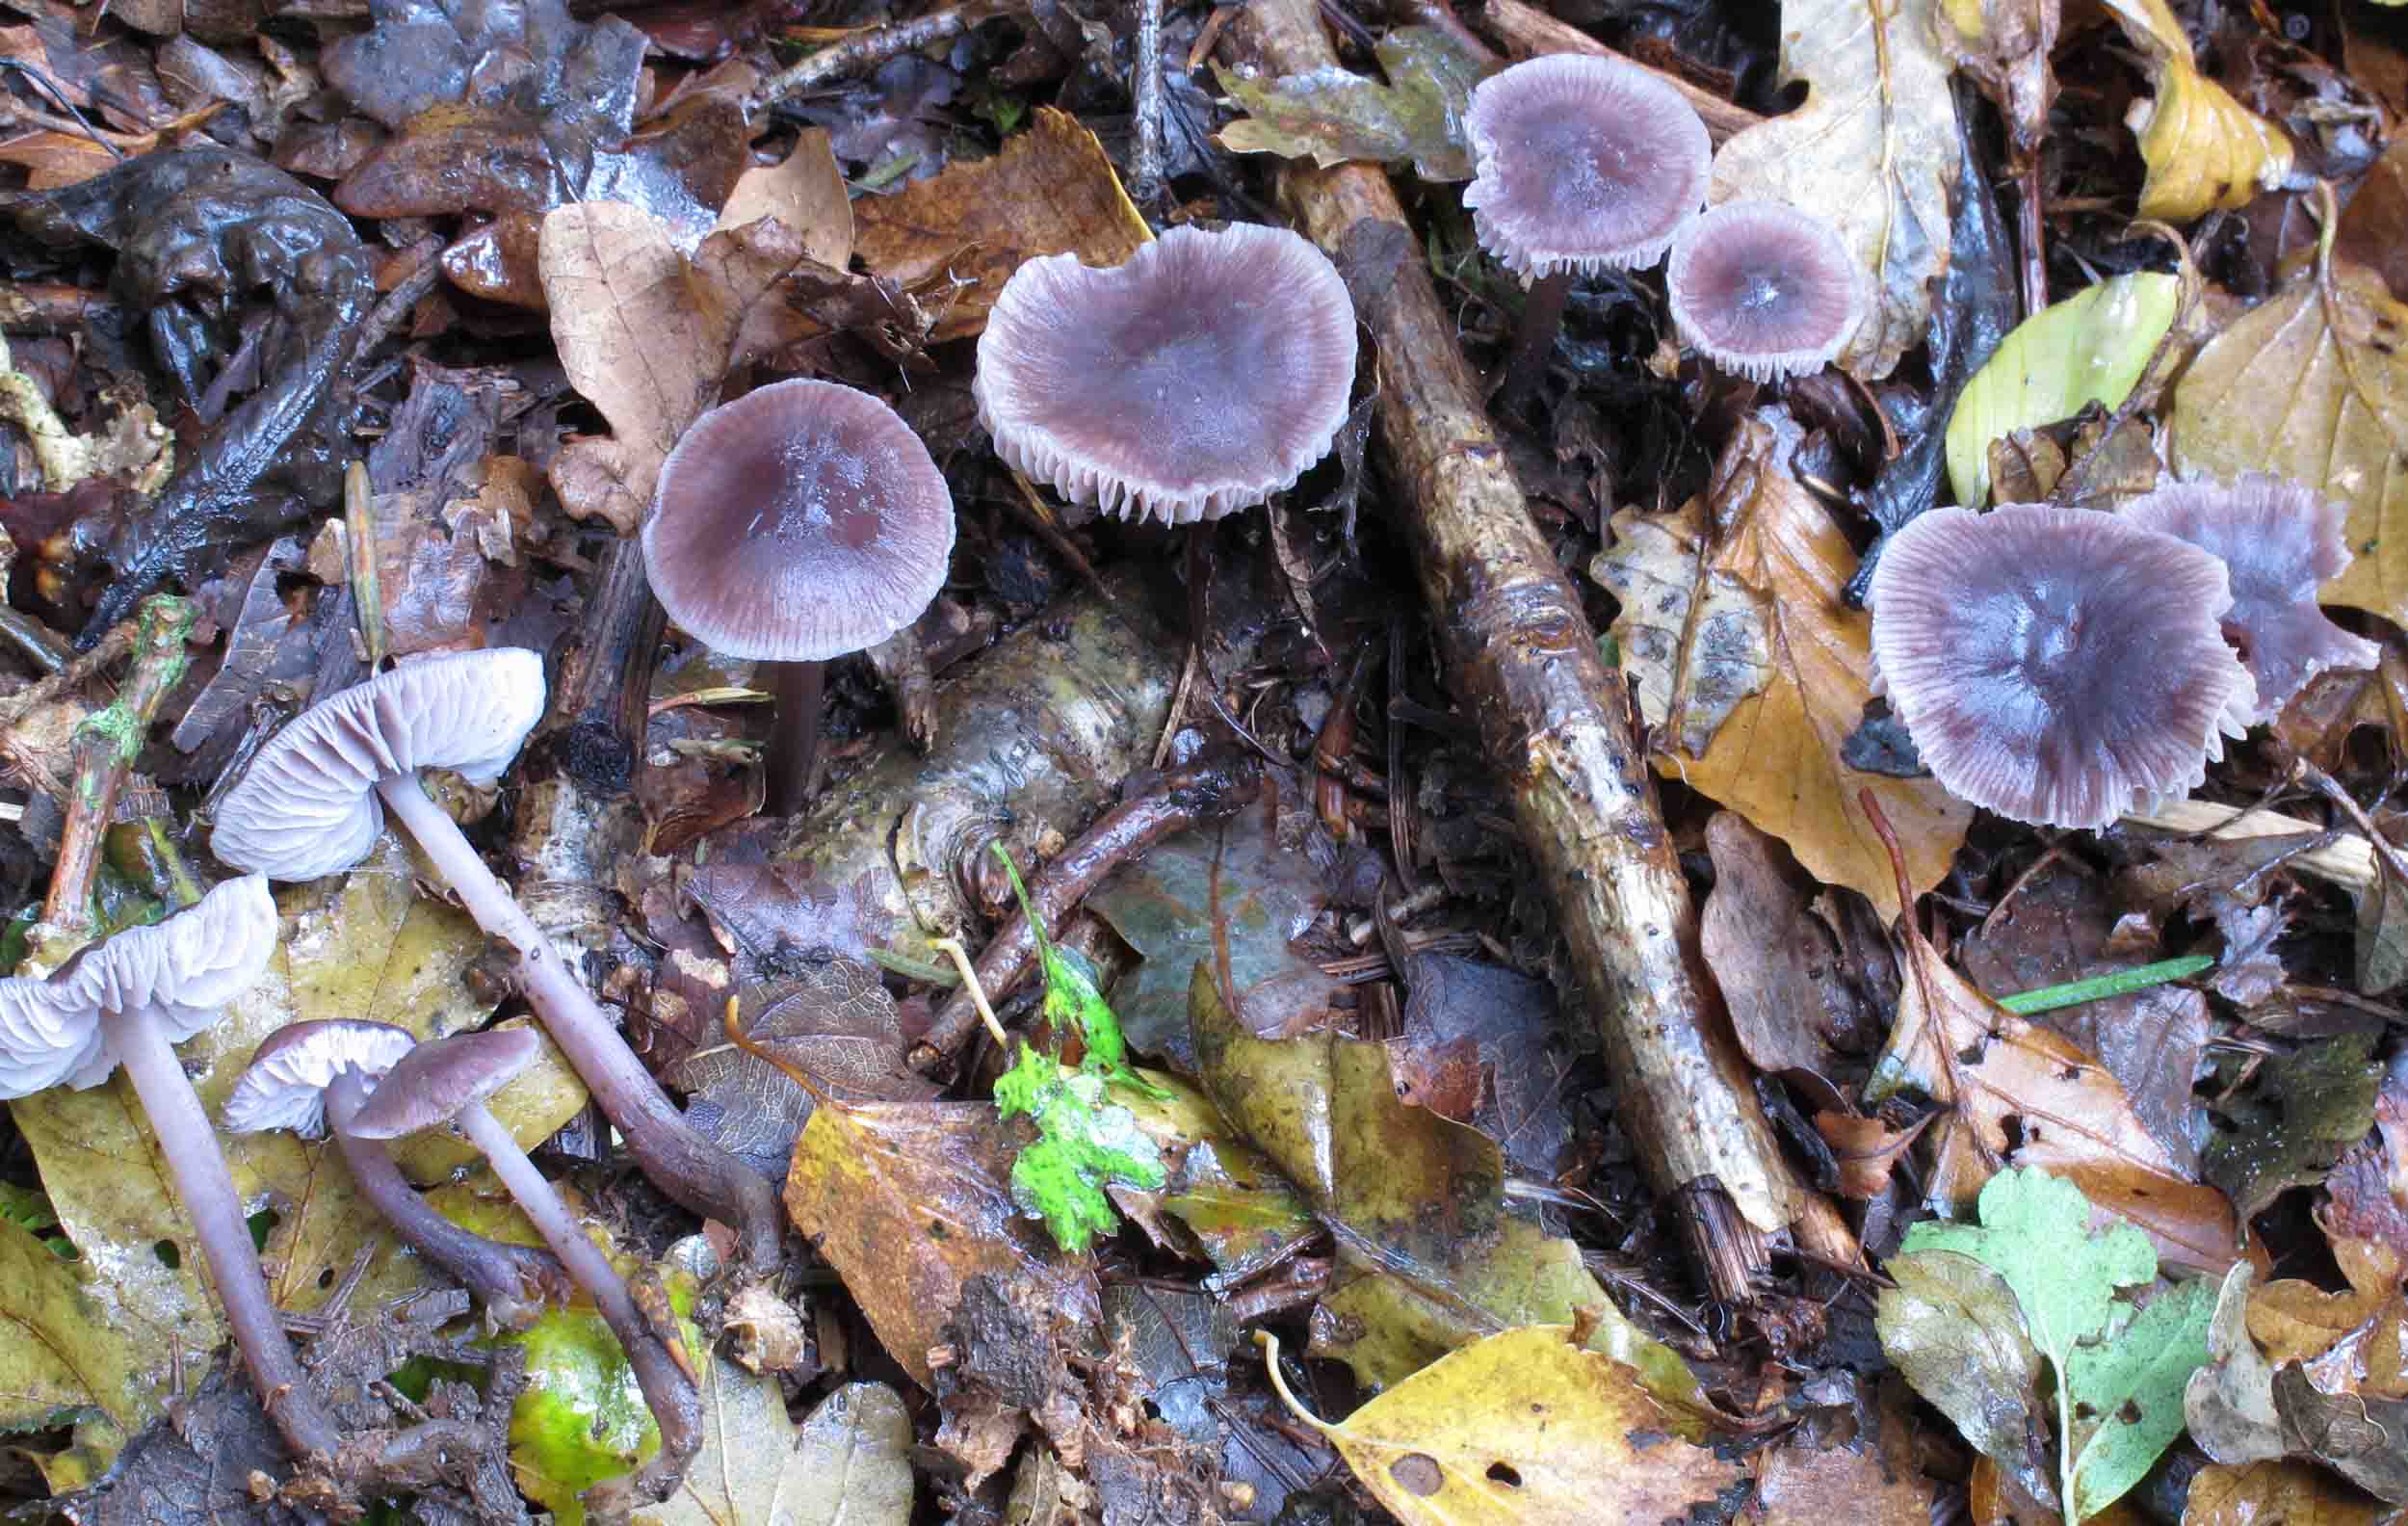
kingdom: Fungi
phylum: Basidiomycota
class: Agaricomycetes
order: Agaricales
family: Mycenaceae
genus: Prunulus
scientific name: Prunulus diosmus
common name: tobaks-huesvamp
